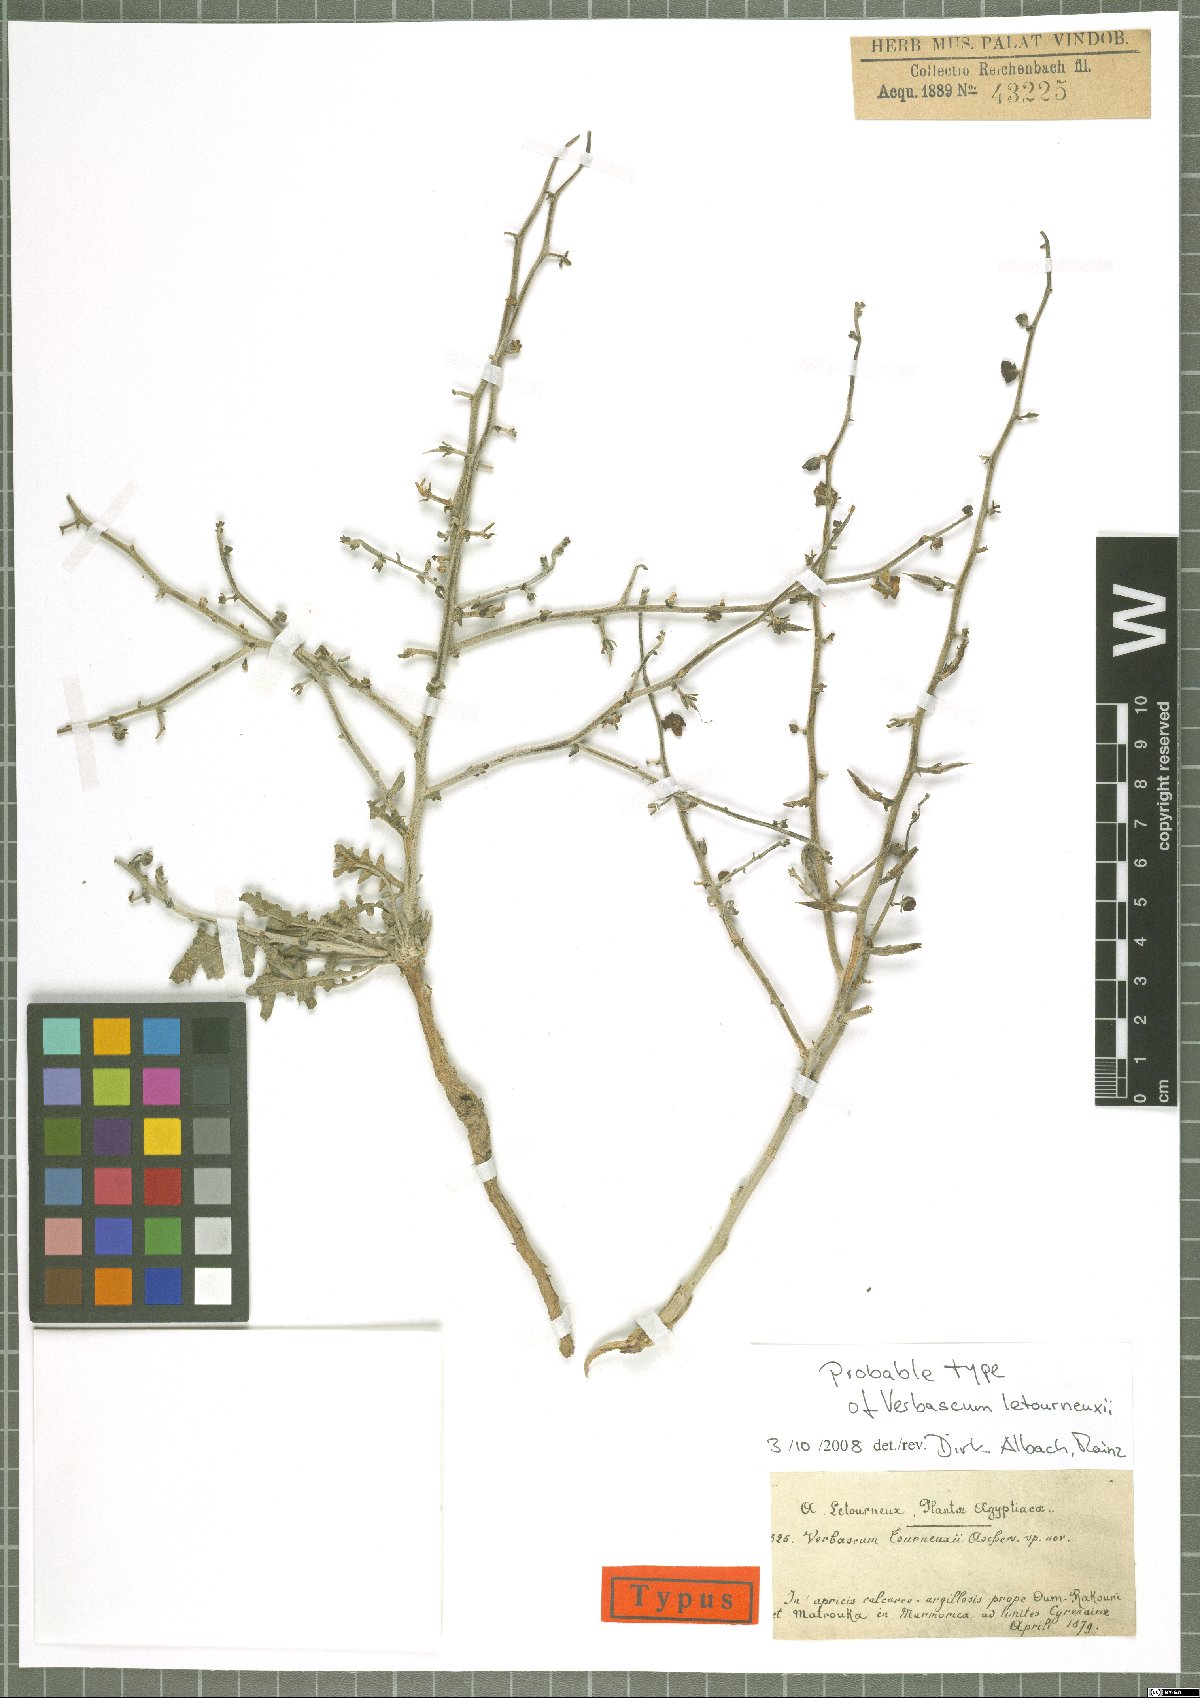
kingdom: Plantae
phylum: Tracheophyta
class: Magnoliopsida
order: Lamiales
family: Scrophulariaceae
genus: Verbascum
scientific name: Verbascum letourneuxii
